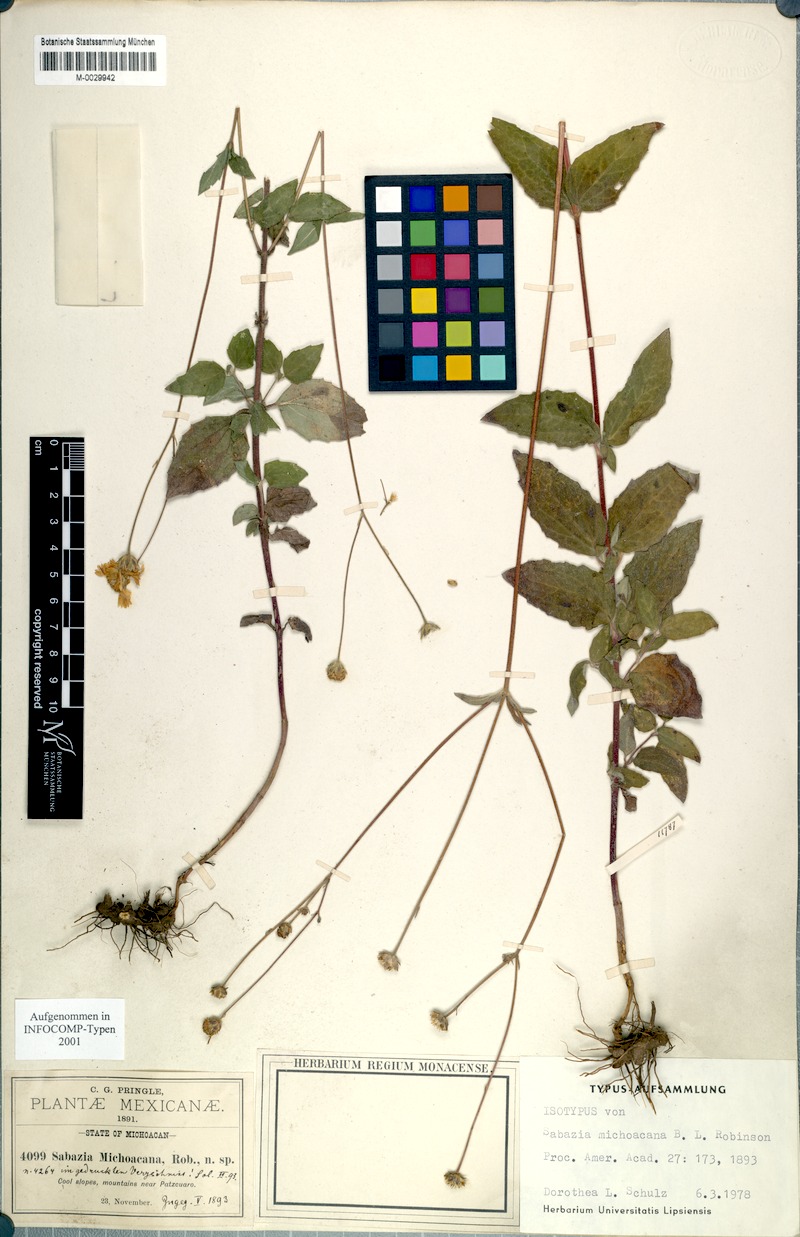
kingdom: Plantae
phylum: Tracheophyta
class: Magnoliopsida
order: Asterales
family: Asteraceae
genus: Alloispermum
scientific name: Alloispermum michoacanum
